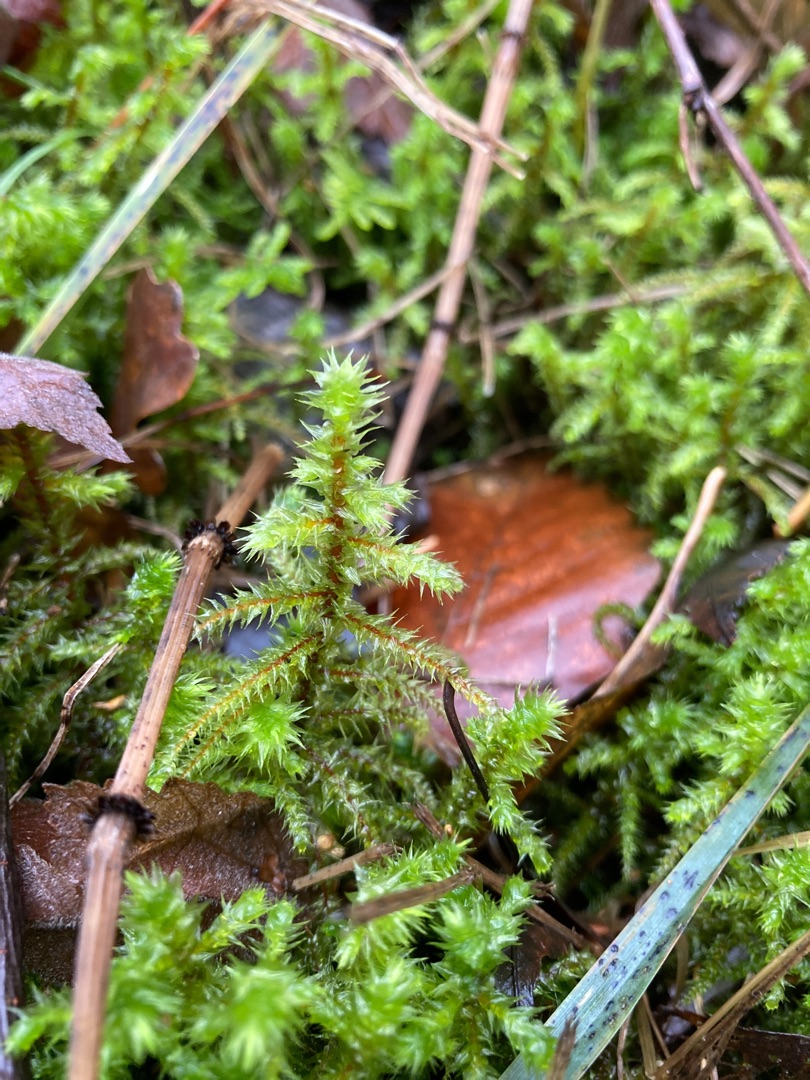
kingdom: Plantae
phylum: Bryophyta
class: Bryopsida
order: Hypnales
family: Hylocomiaceae
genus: Hylocomiadelphus
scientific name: Hylocomiadelphus triquetrus
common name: Stor kransemos
